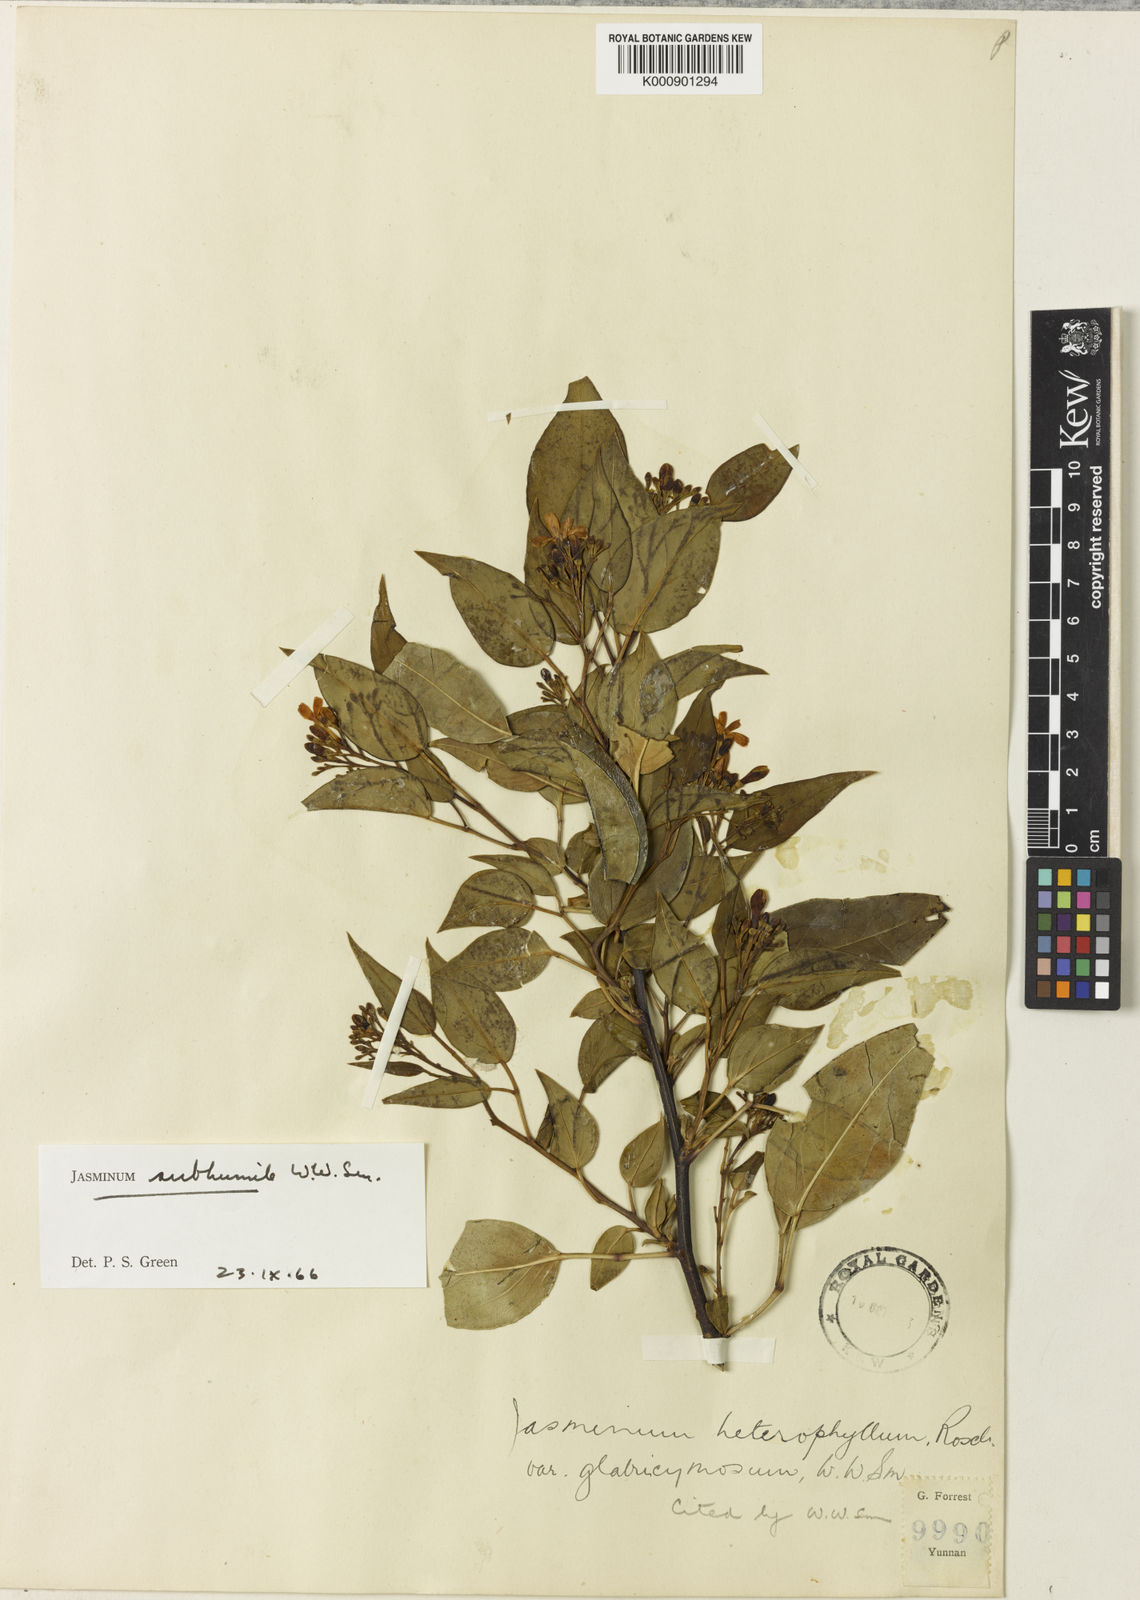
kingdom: Plantae
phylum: Tracheophyta
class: Magnoliopsida
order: Lamiales
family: Oleaceae
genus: Chrysojasminum
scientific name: Chrysojasminum subhumile
